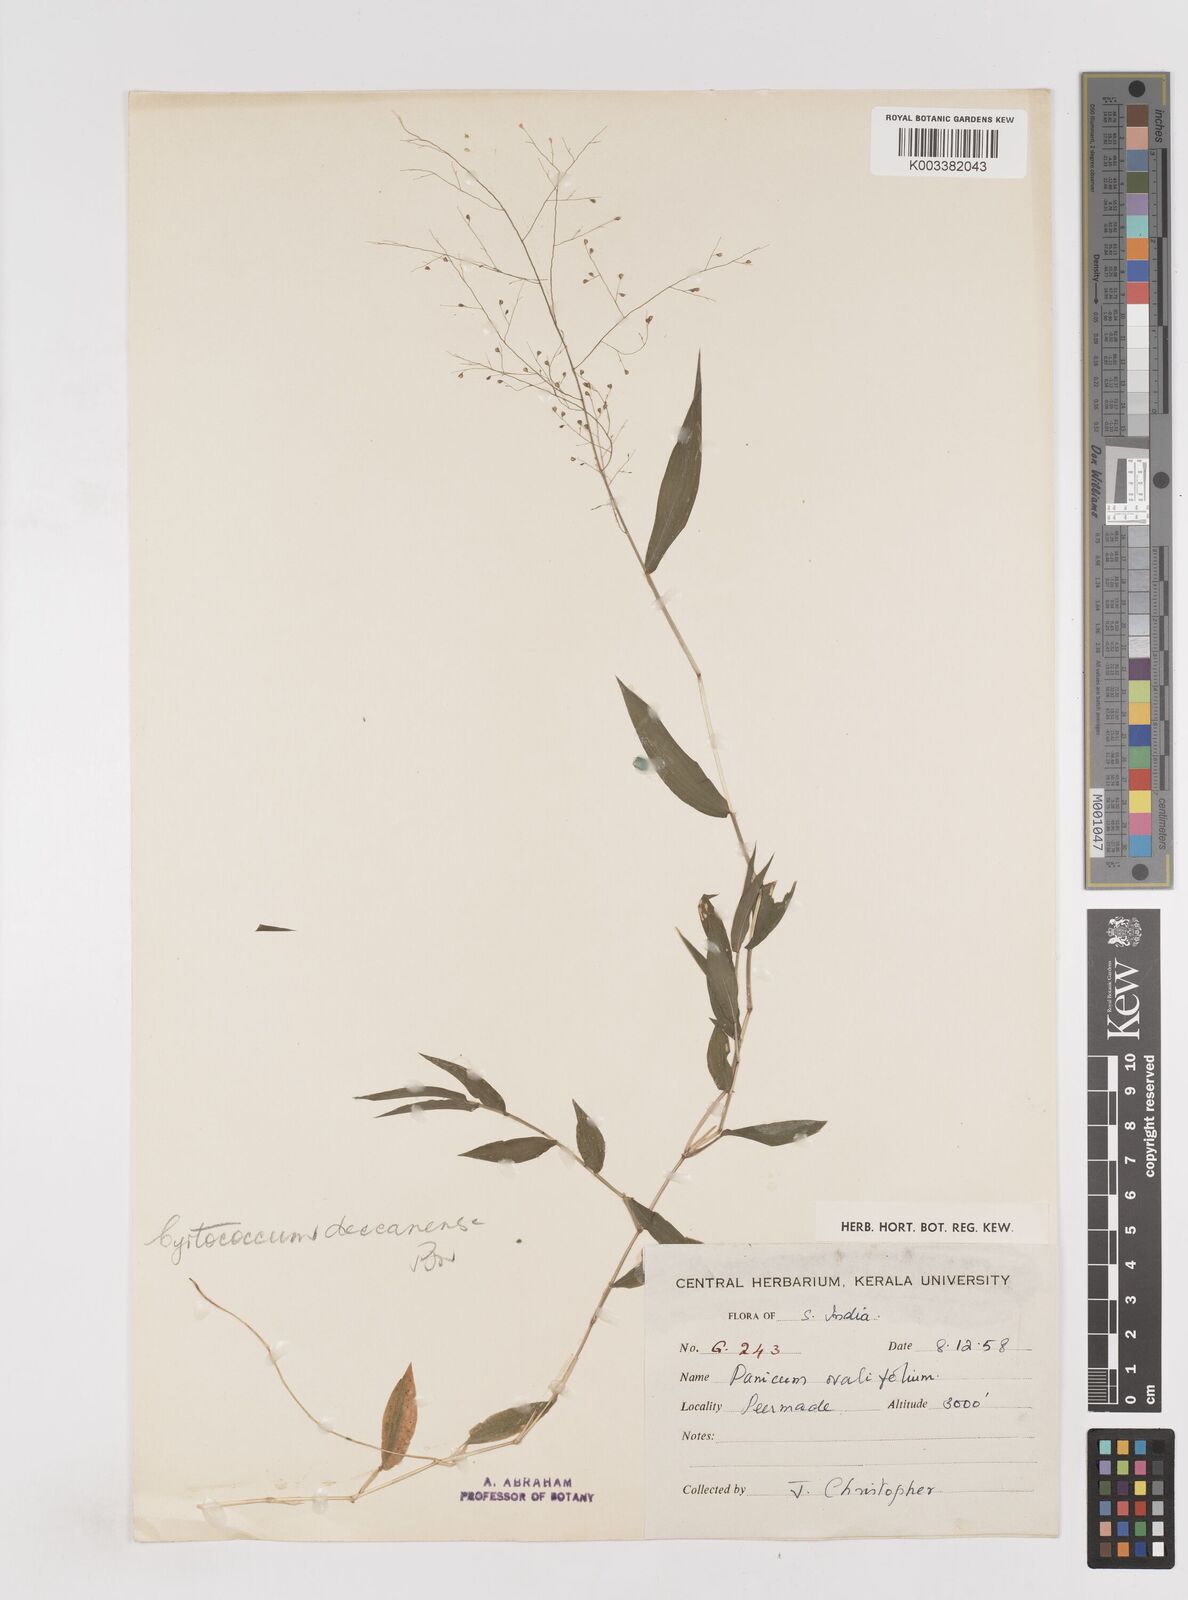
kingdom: Plantae
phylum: Tracheophyta
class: Liliopsida
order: Poales
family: Poaceae
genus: Cyrtococcum
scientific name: Cyrtococcum deccanense
